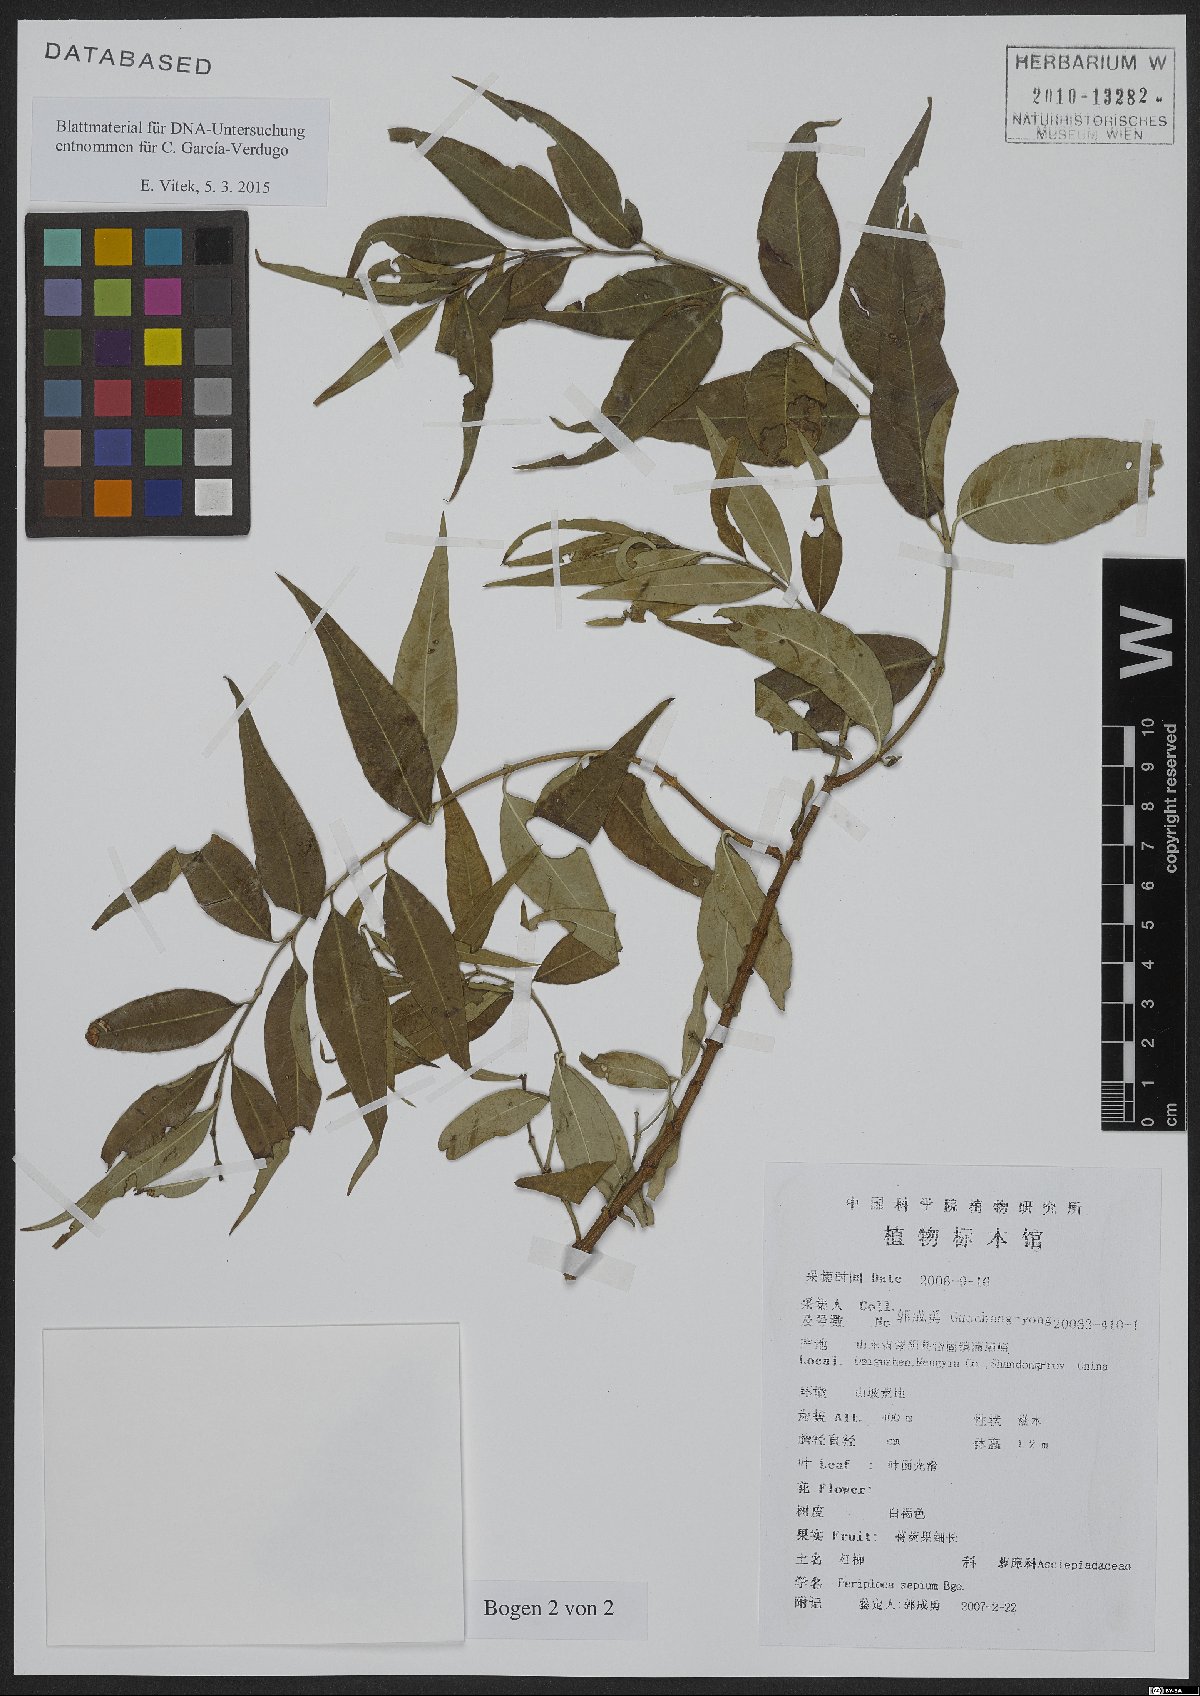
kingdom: Plantae
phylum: Tracheophyta
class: Magnoliopsida
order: Gentianales
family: Apocynaceae
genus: Periploca
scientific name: Periploca sepium
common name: Chinese silkvine
